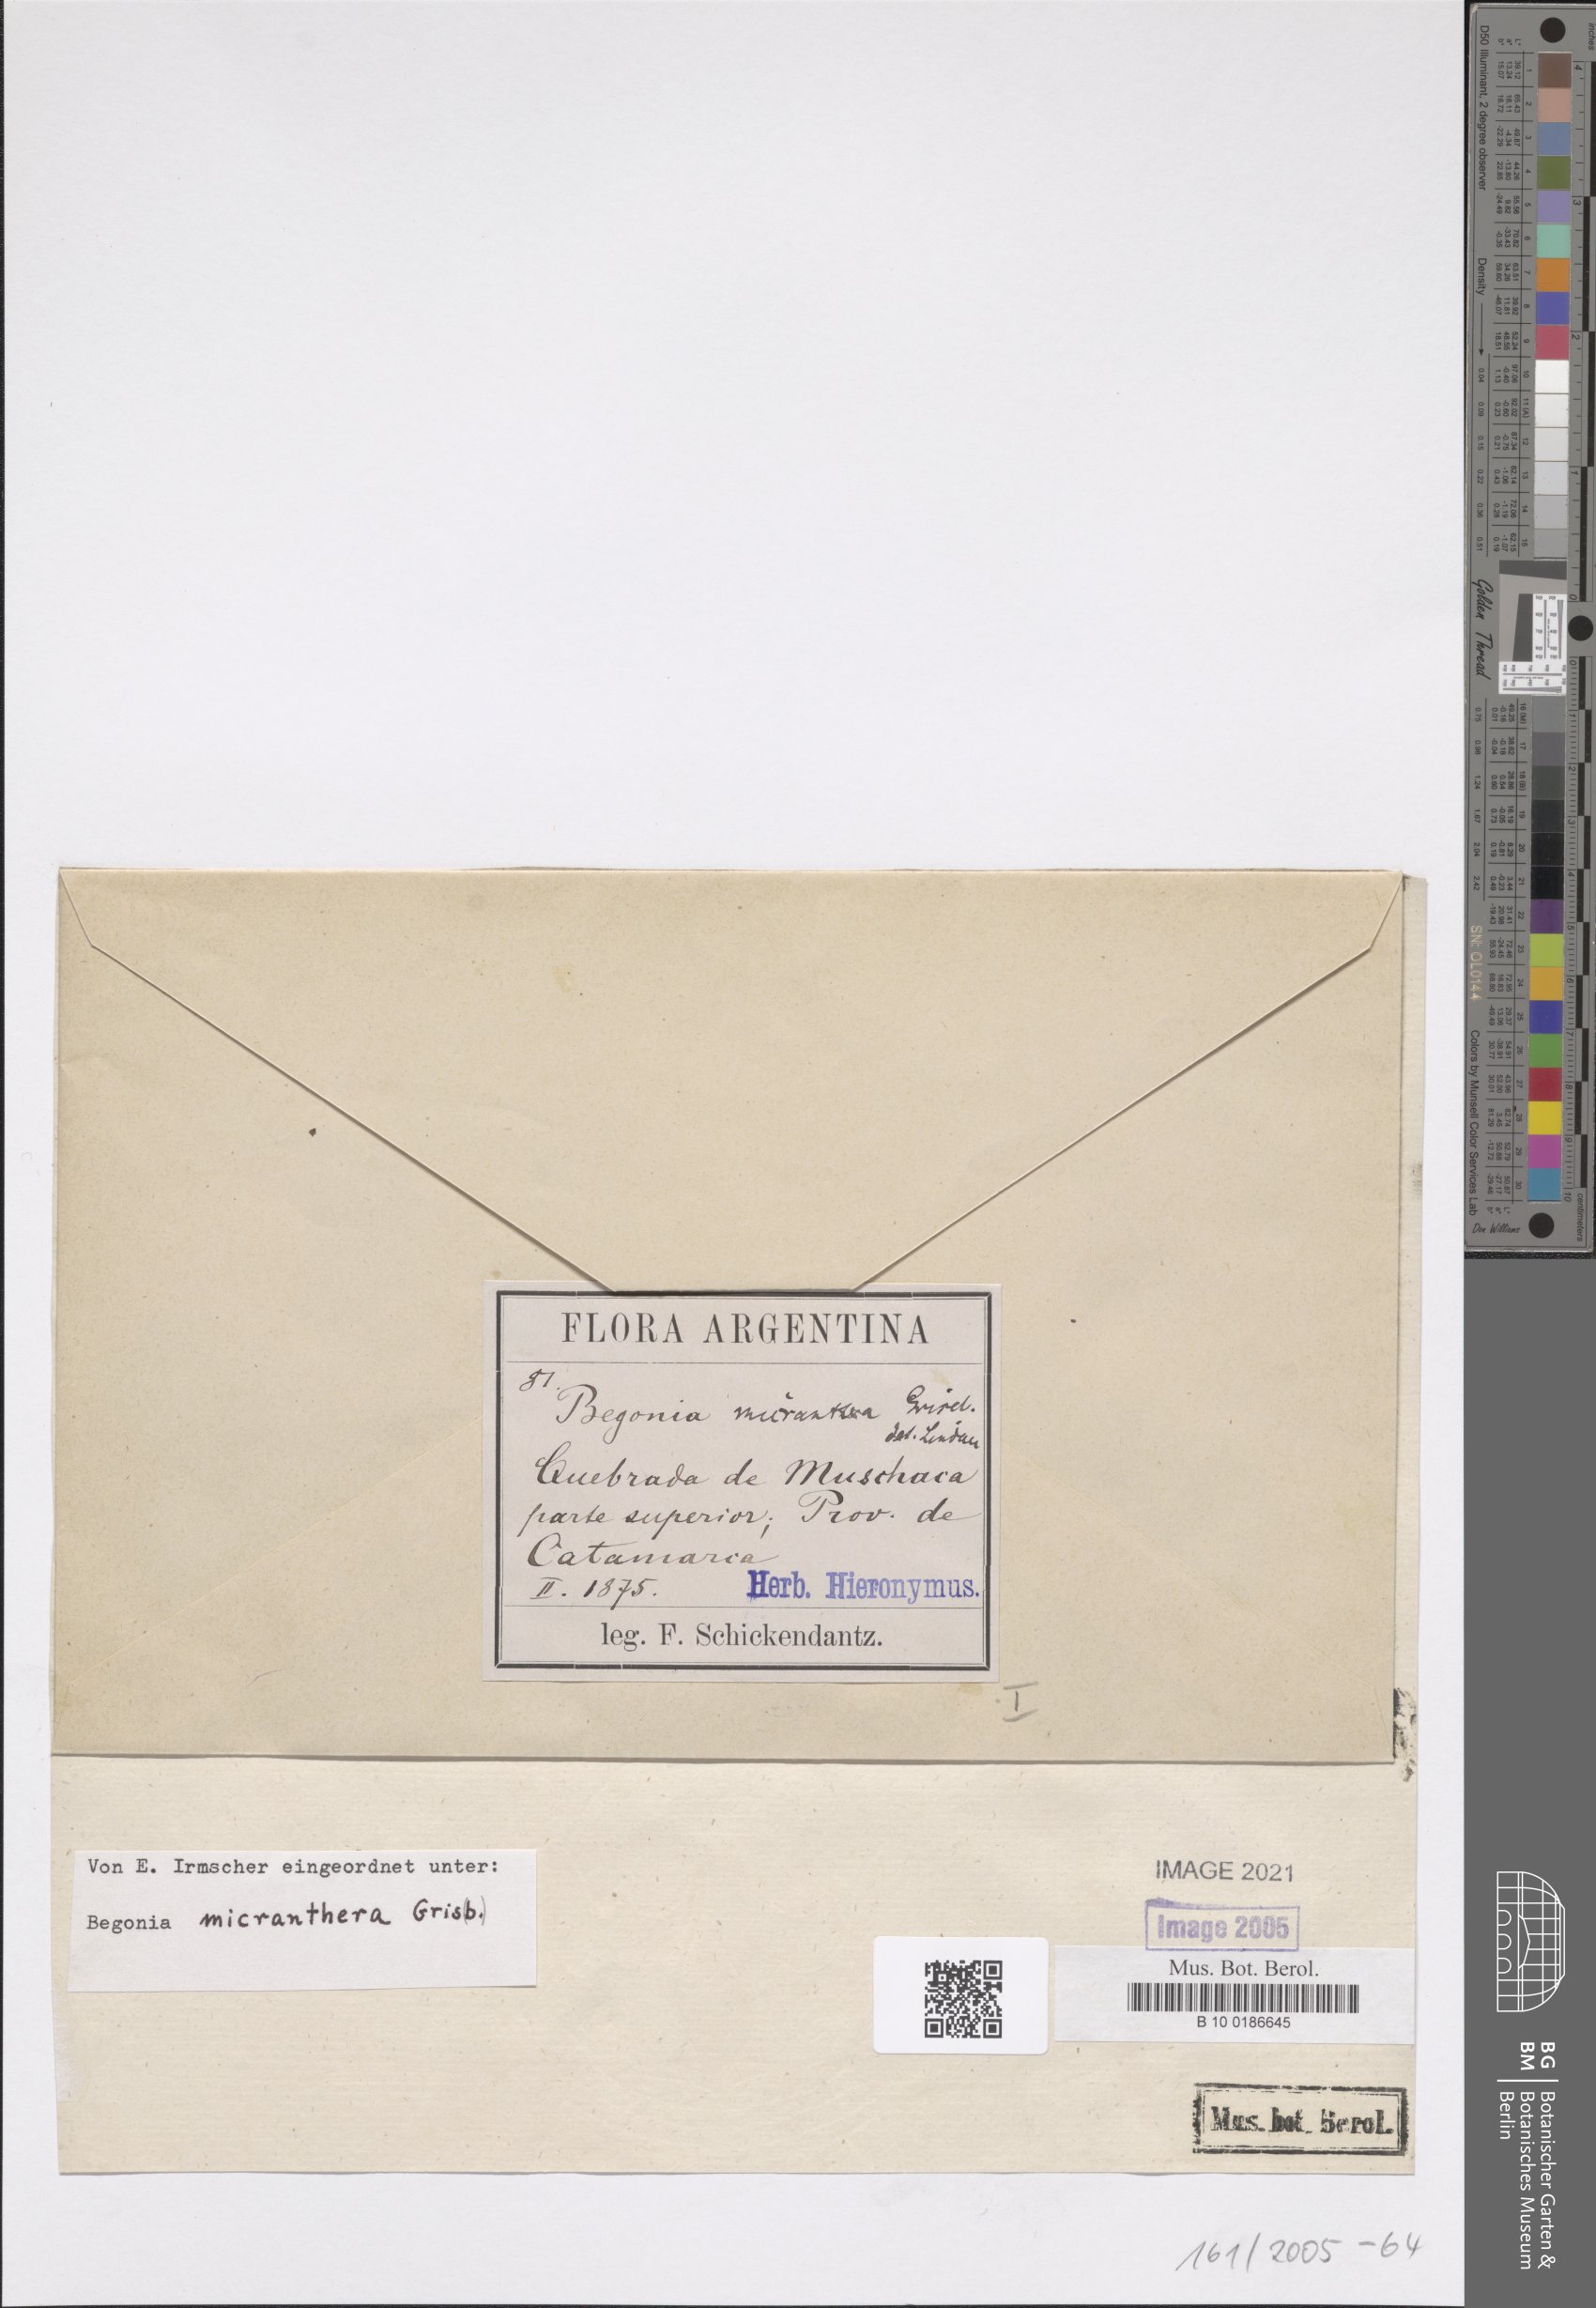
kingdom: Plantae
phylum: Tracheophyta
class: Magnoliopsida
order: Cucurbitales
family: Begoniaceae
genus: Begonia
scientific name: Begonia micranthera
